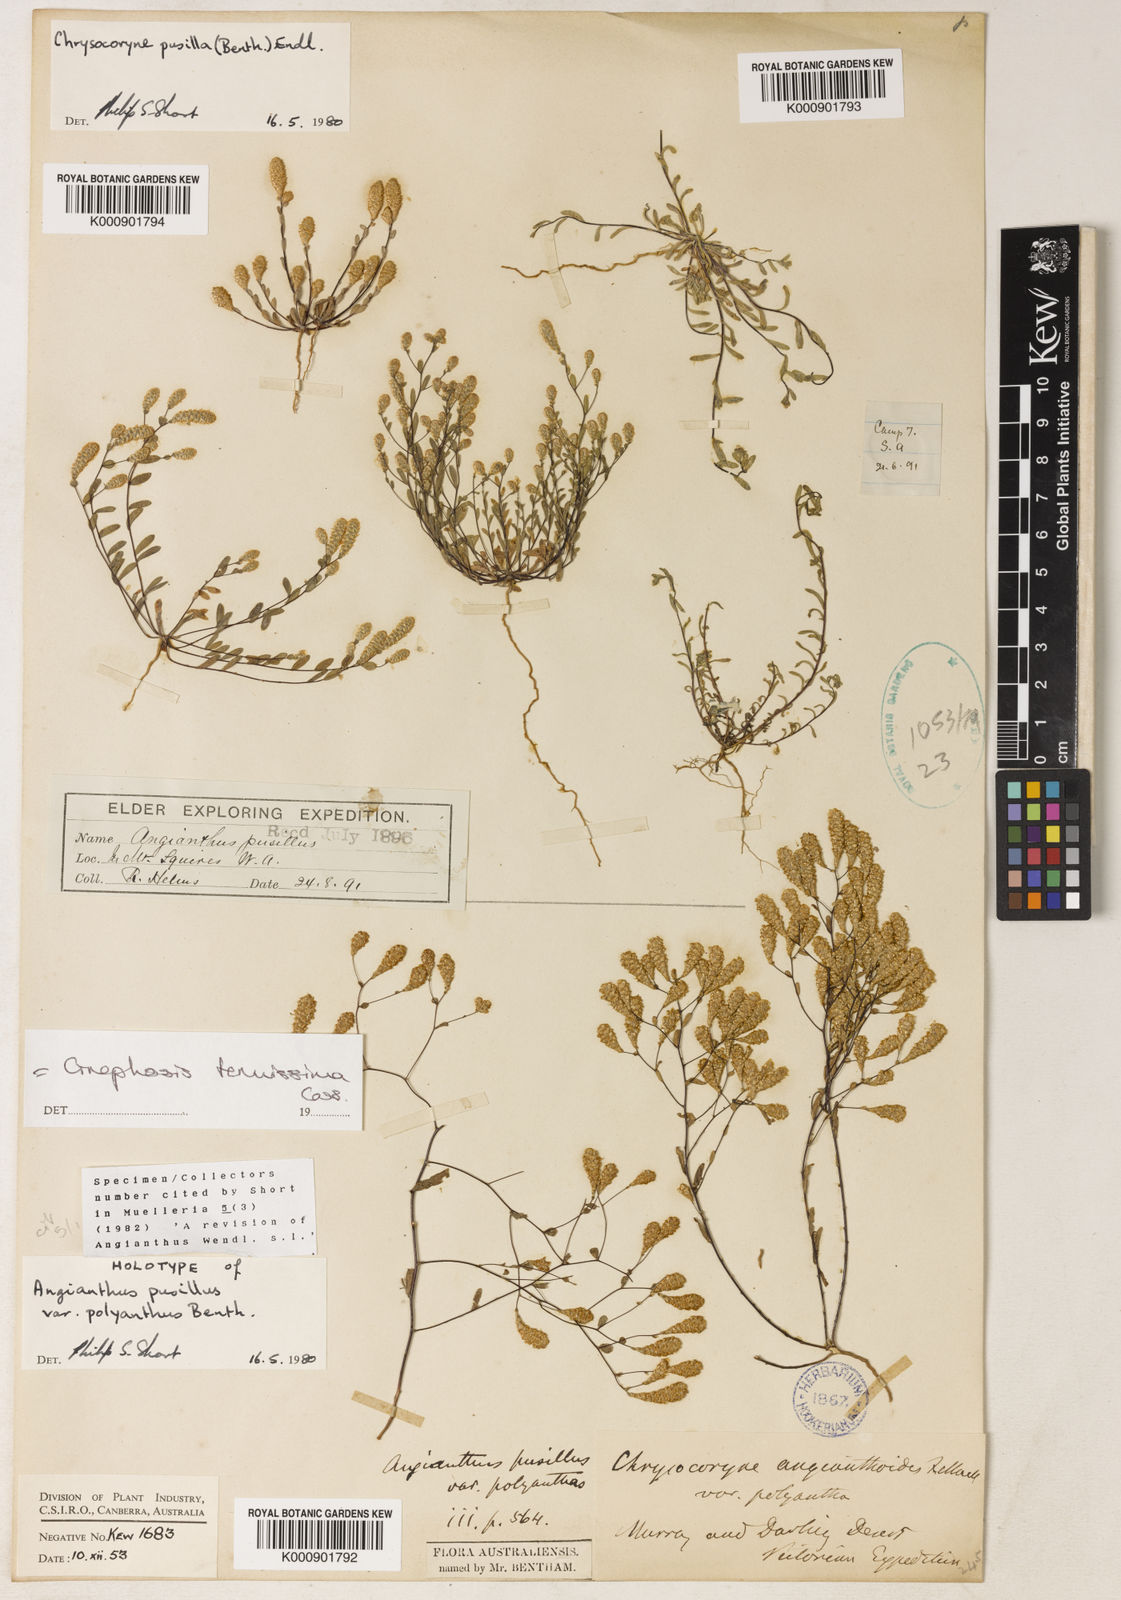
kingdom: Plantae
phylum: Tracheophyta
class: Magnoliopsida
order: Asterales
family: Asteraceae
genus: Gnephosis
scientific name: Gnephosis tenuissima
